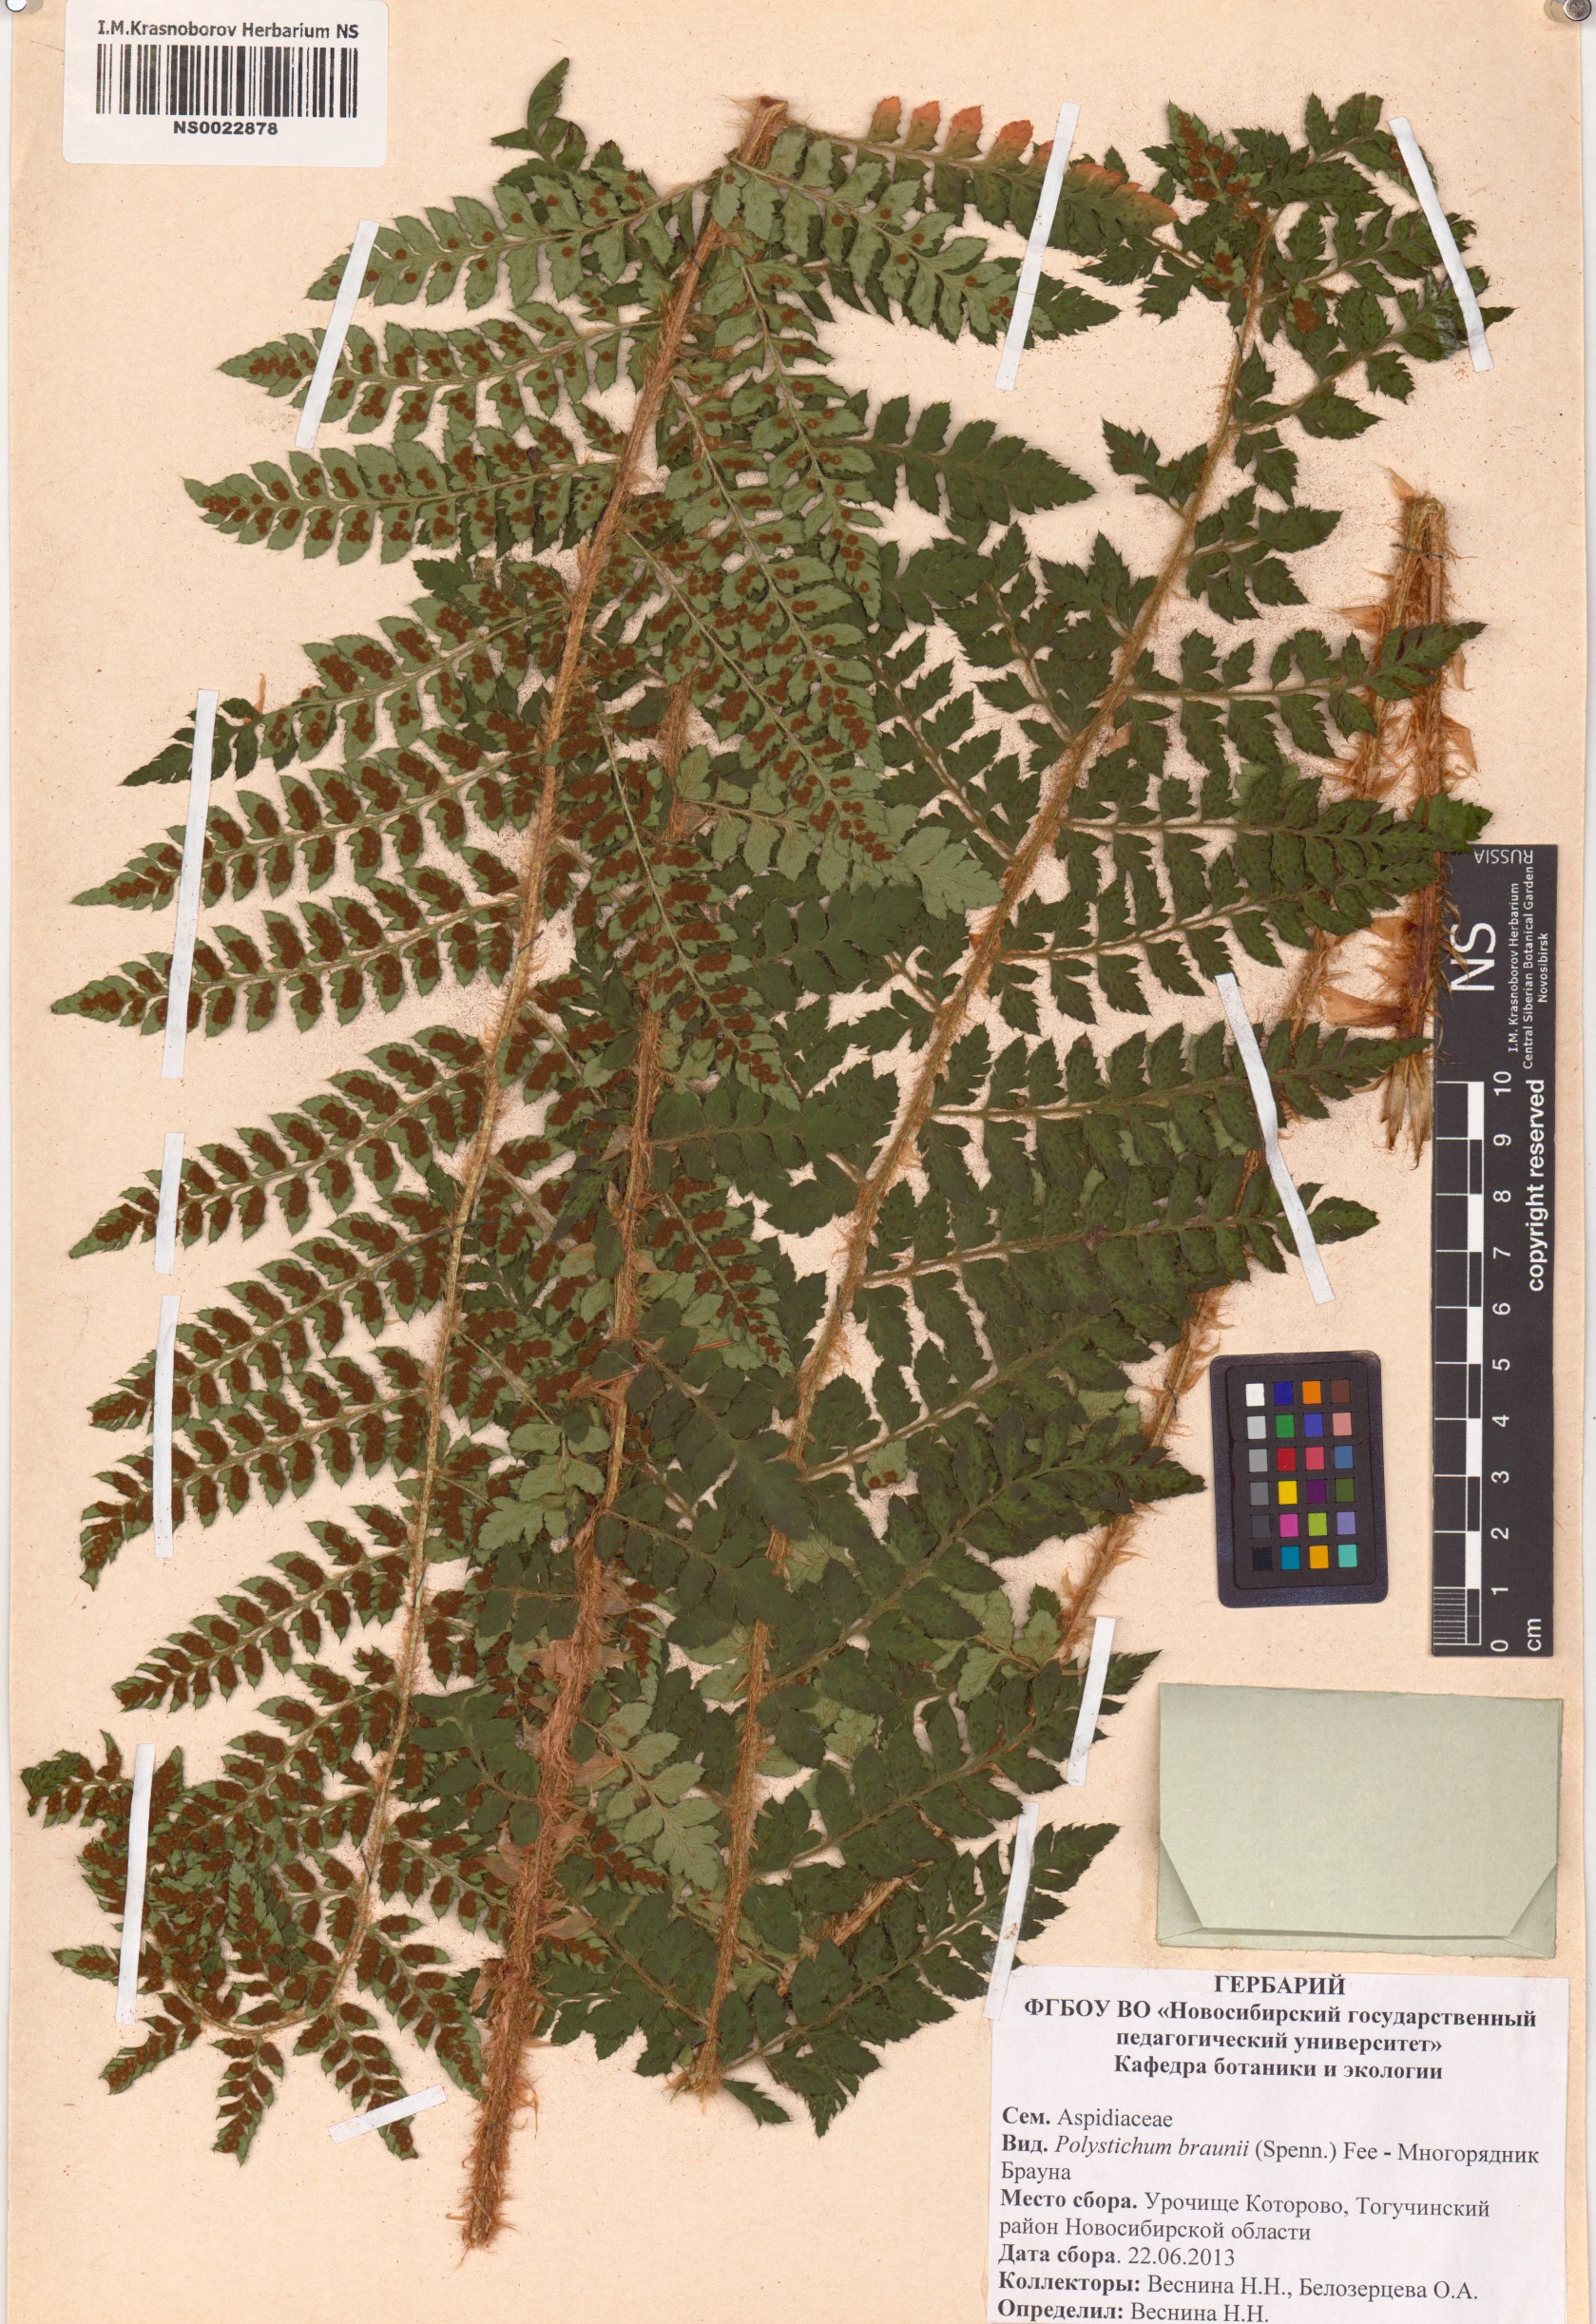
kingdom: Plantae
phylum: Tracheophyta
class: Polypodiopsida
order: Polypodiales
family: Dryopteridaceae
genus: Polystichum
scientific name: Polystichum braunii
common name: Braun's holly fern
